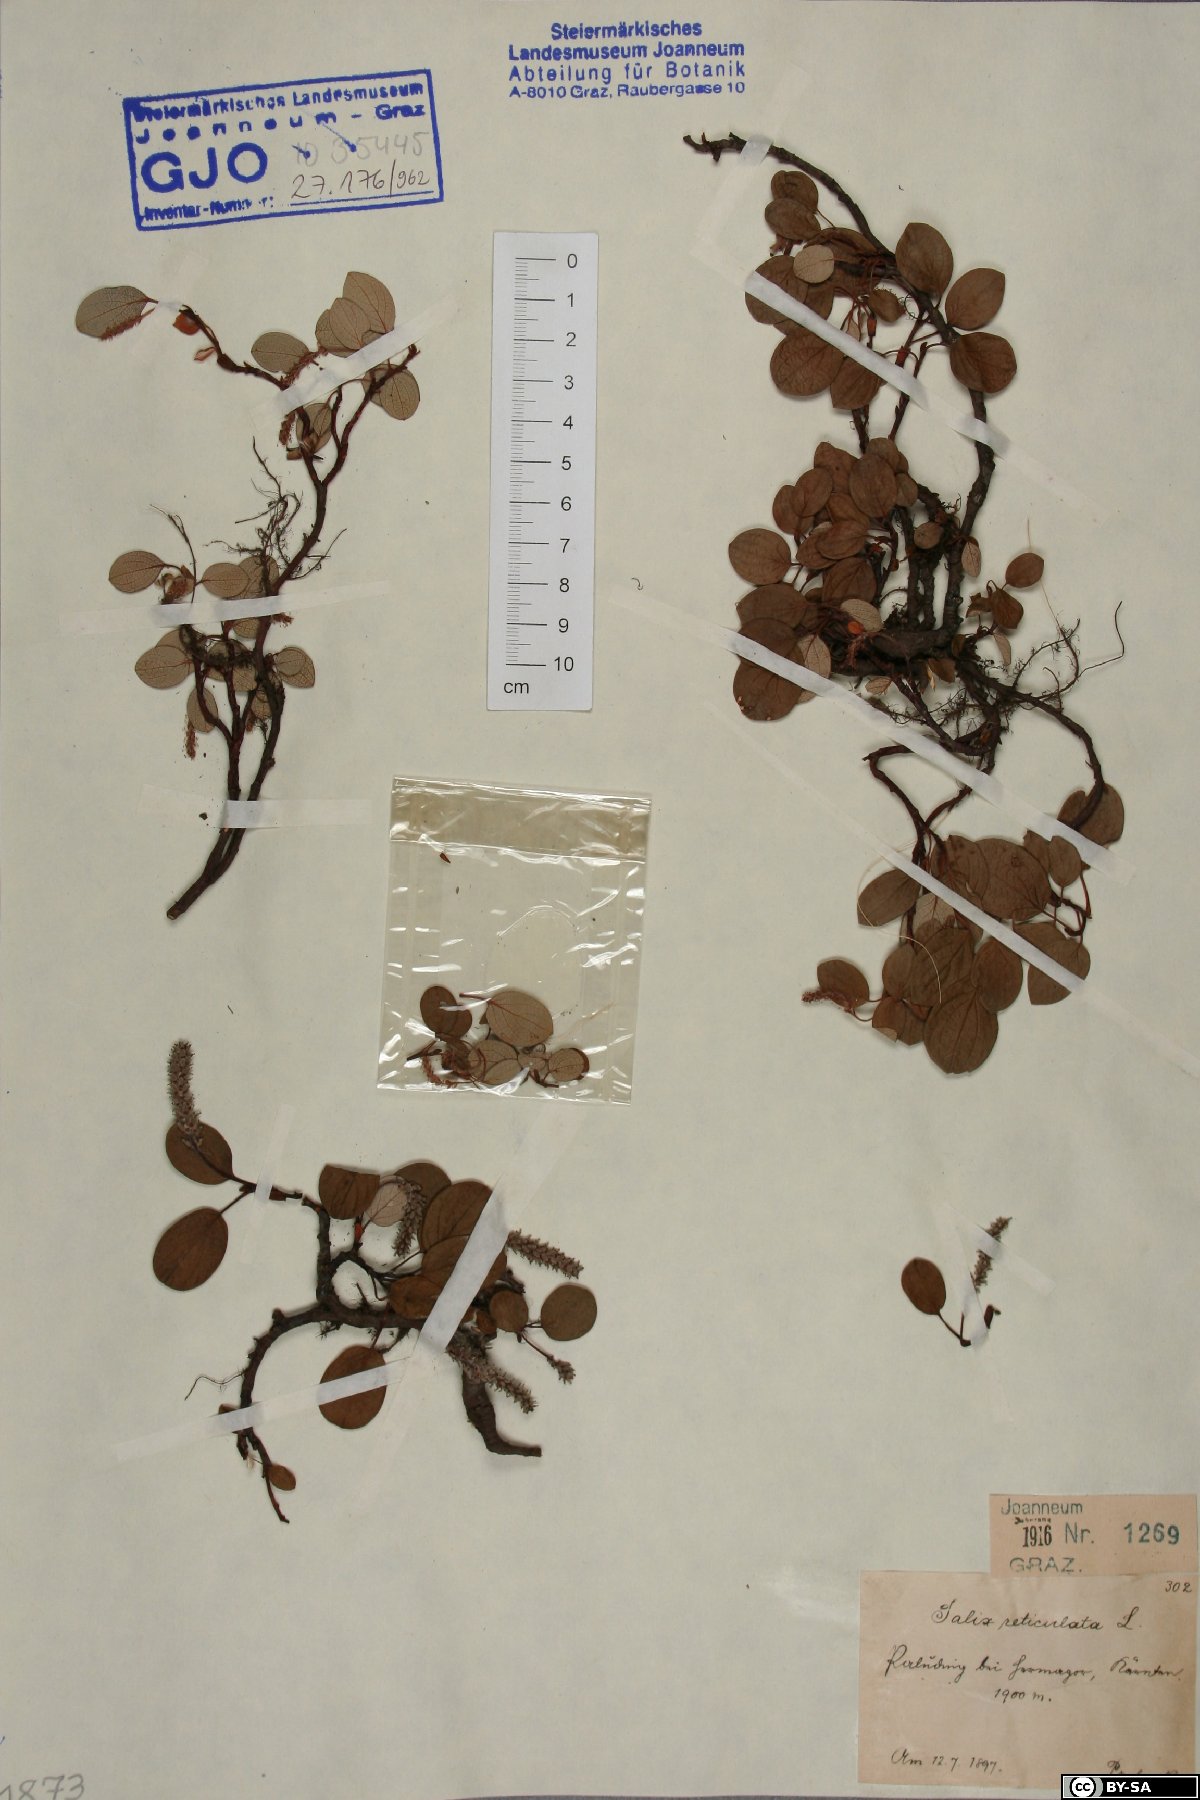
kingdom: Plantae
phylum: Tracheophyta
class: Magnoliopsida
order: Malpighiales
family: Salicaceae
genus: Salix
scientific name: Salix reticulata
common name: Net-leaved willow
